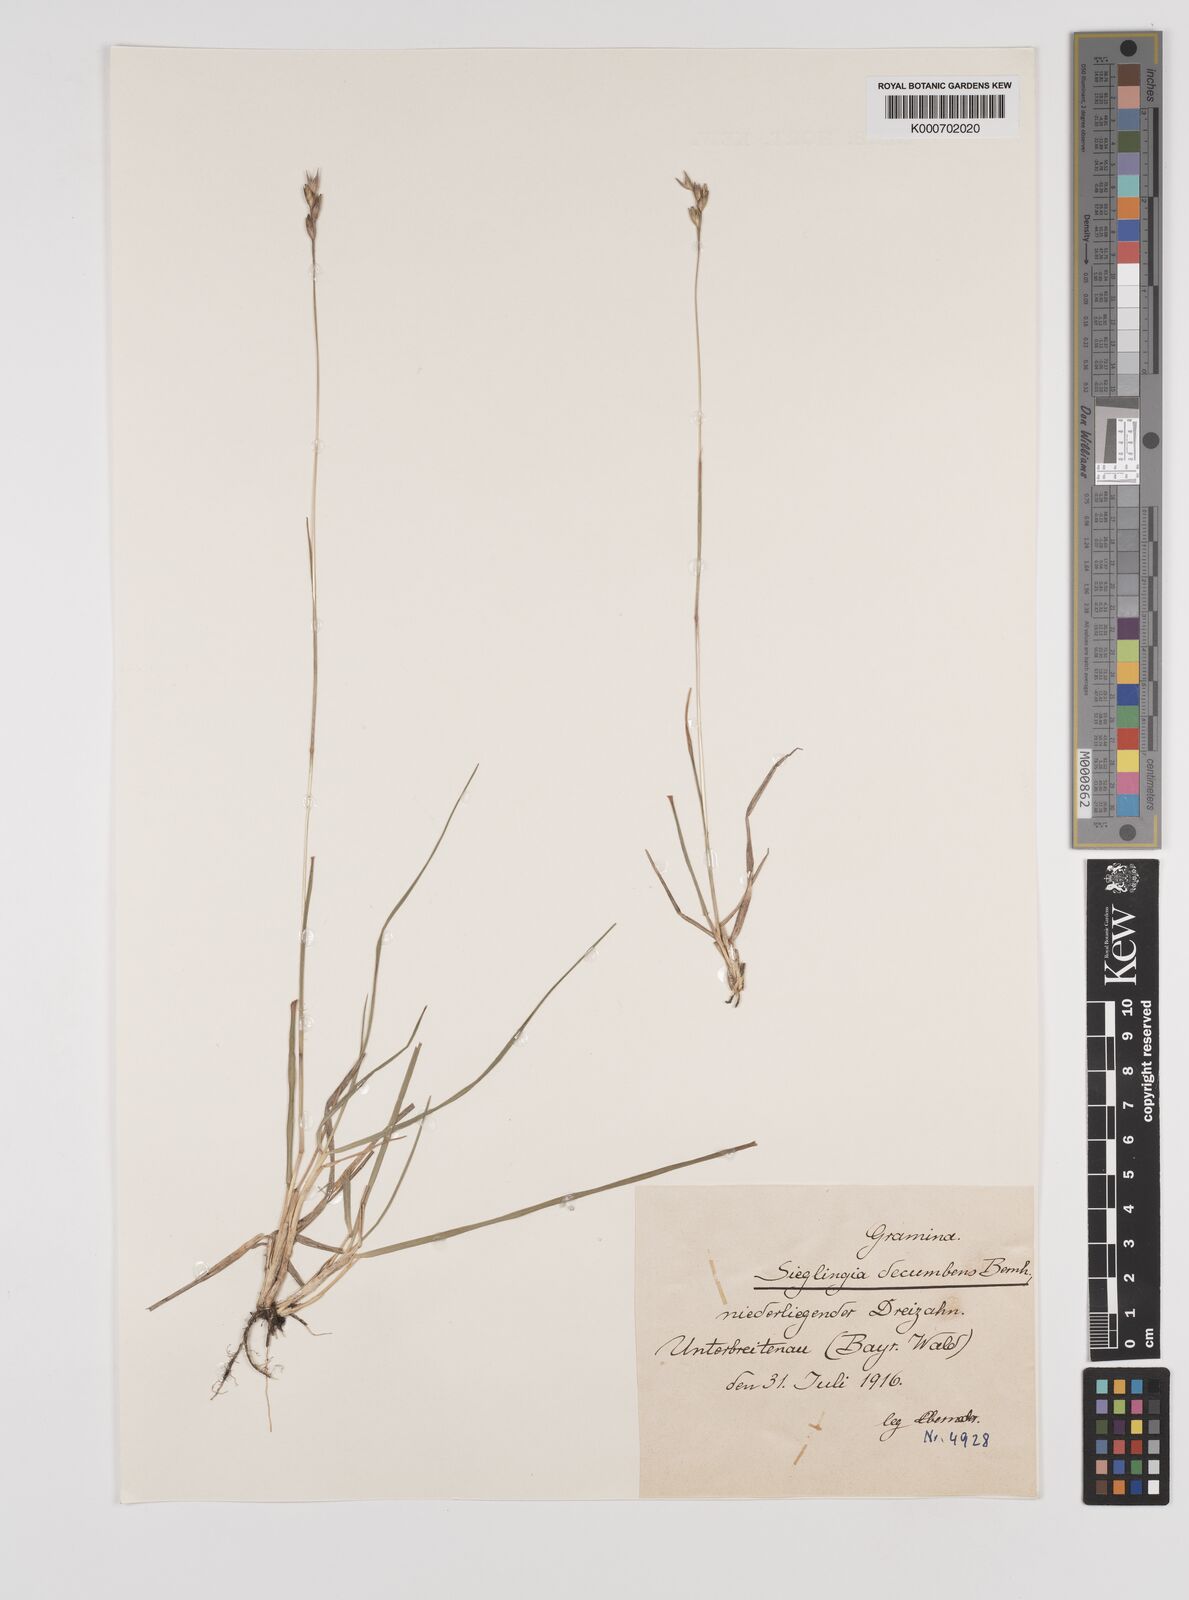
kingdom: Plantae
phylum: Tracheophyta
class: Liliopsida
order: Poales
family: Poaceae
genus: Danthonia
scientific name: Danthonia decumbens
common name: Common heathgrass
